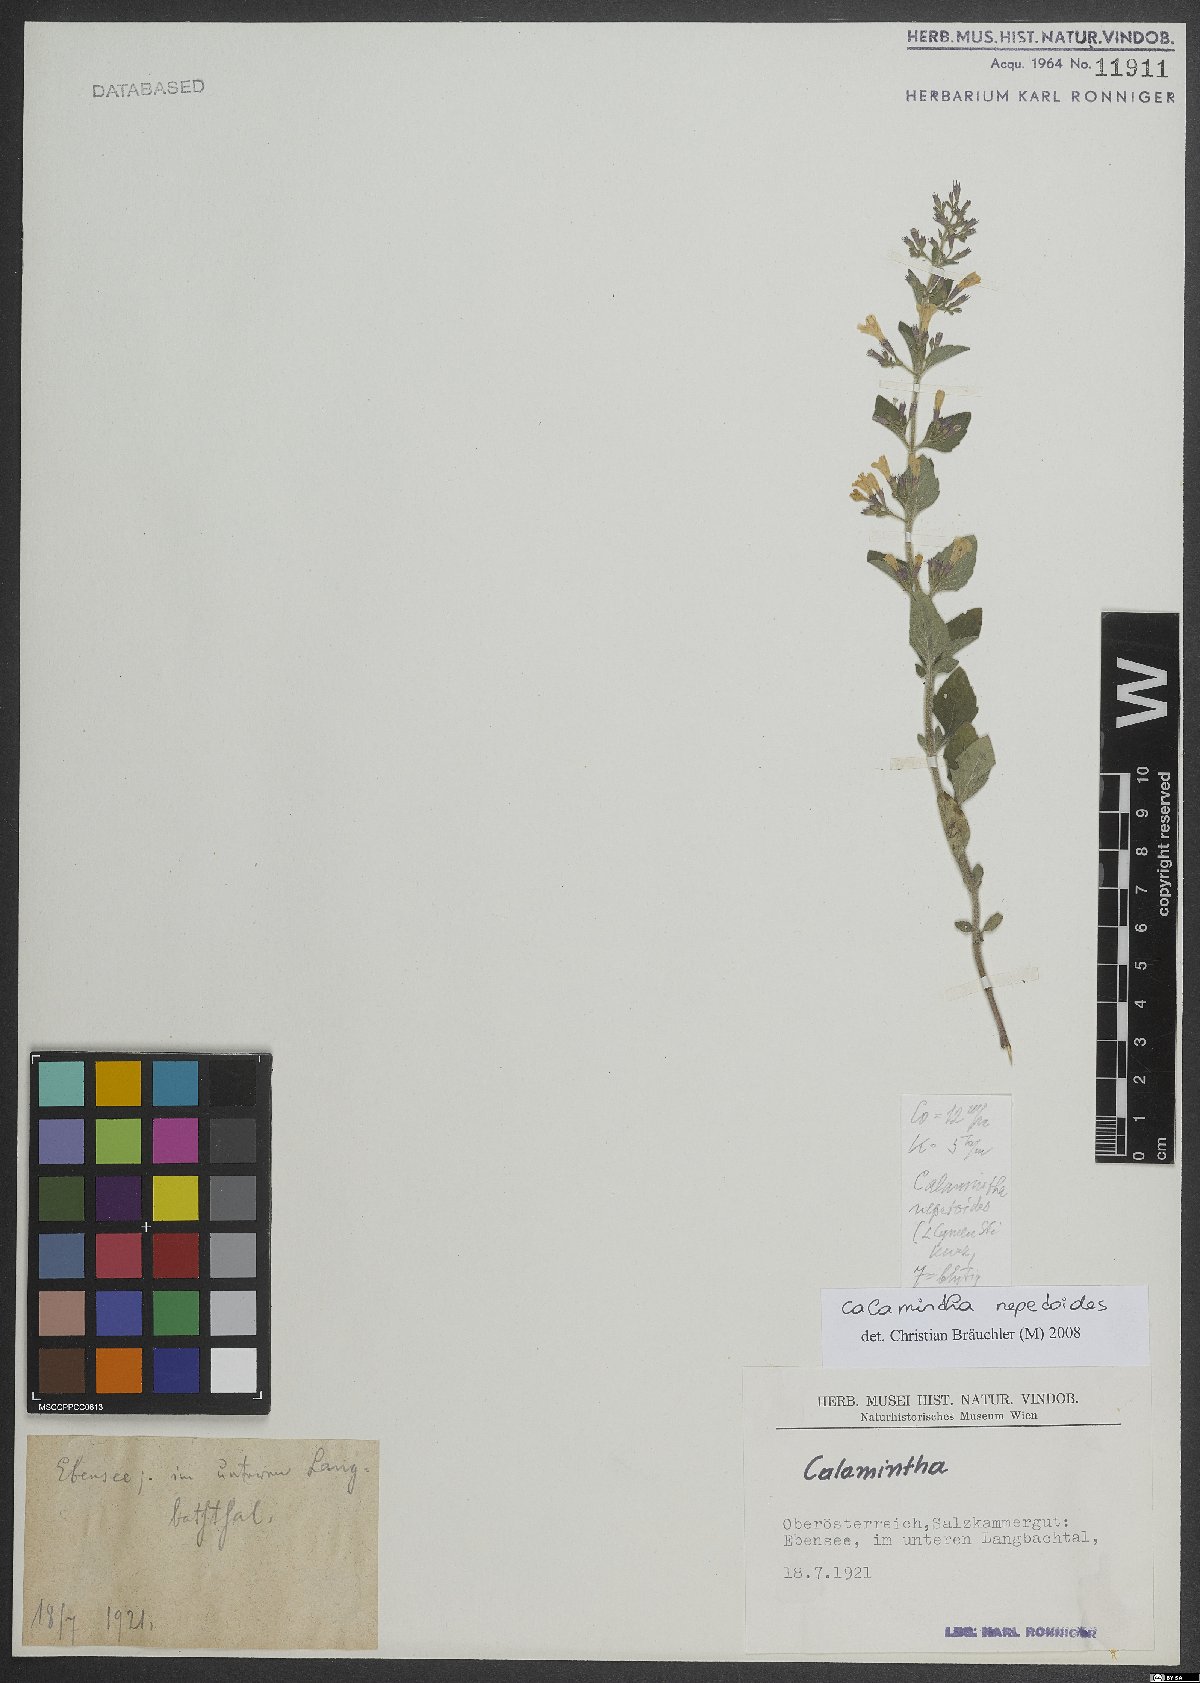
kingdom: Plantae
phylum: Tracheophyta
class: Magnoliopsida
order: Lamiales
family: Lamiaceae
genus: Clinopodium
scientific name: Clinopodium nepeta
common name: Lesser calamint
